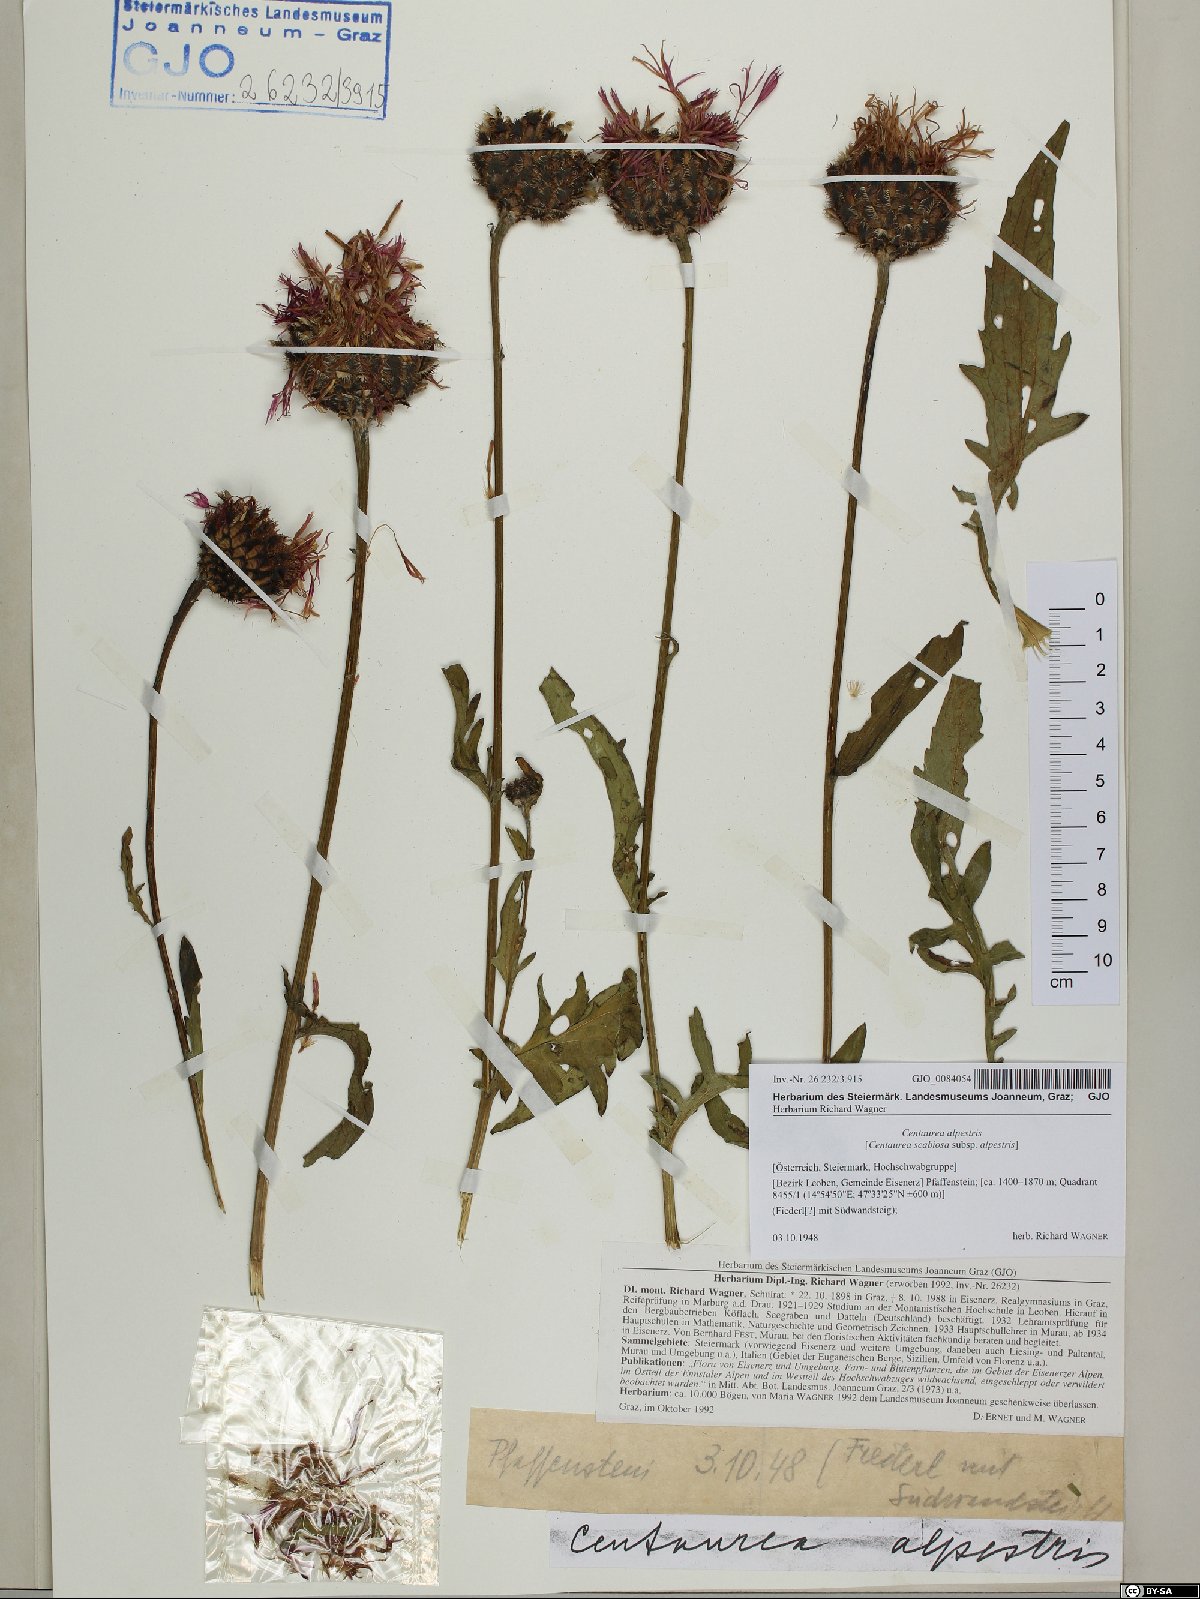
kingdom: Plantae
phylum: Tracheophyta
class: Magnoliopsida
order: Asterales
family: Asteraceae
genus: Centaurea
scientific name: Centaurea scabiosa
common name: Greater knapweed
